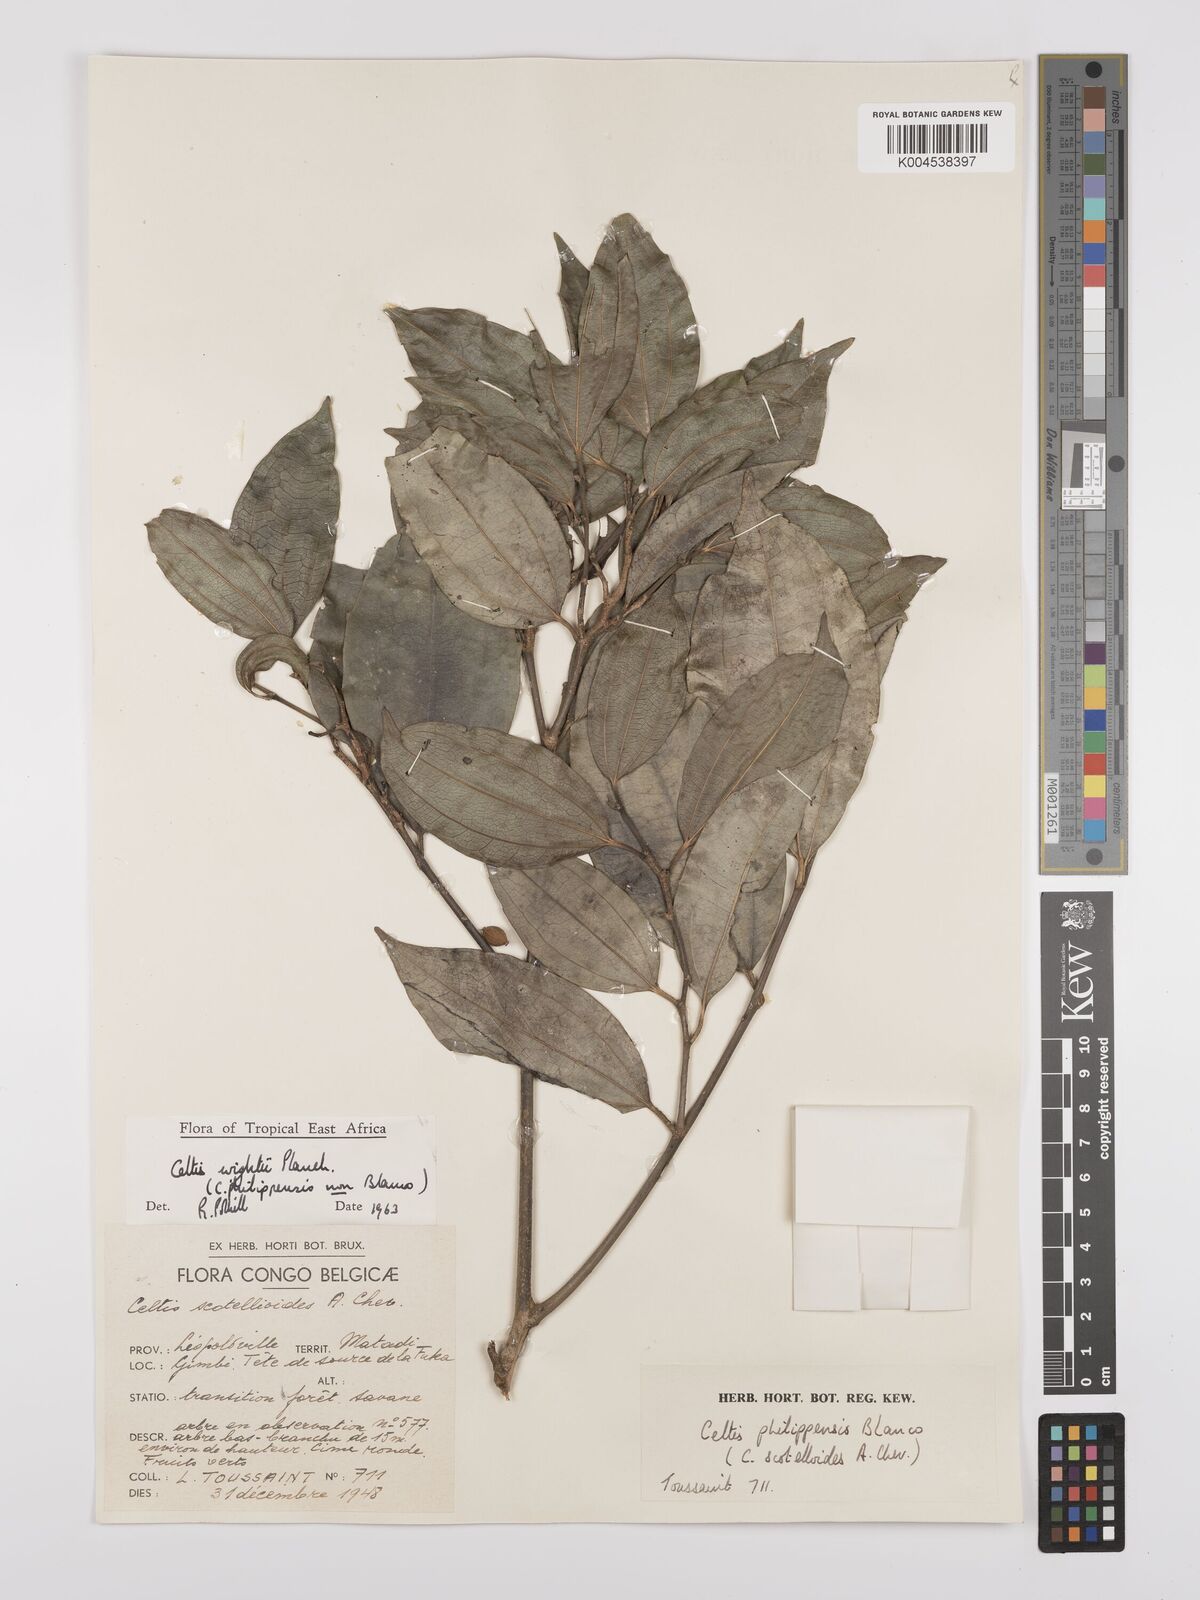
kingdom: Plantae
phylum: Tracheophyta
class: Magnoliopsida
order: Rosales
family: Cannabaceae
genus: Celtis
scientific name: Celtis philippensis
